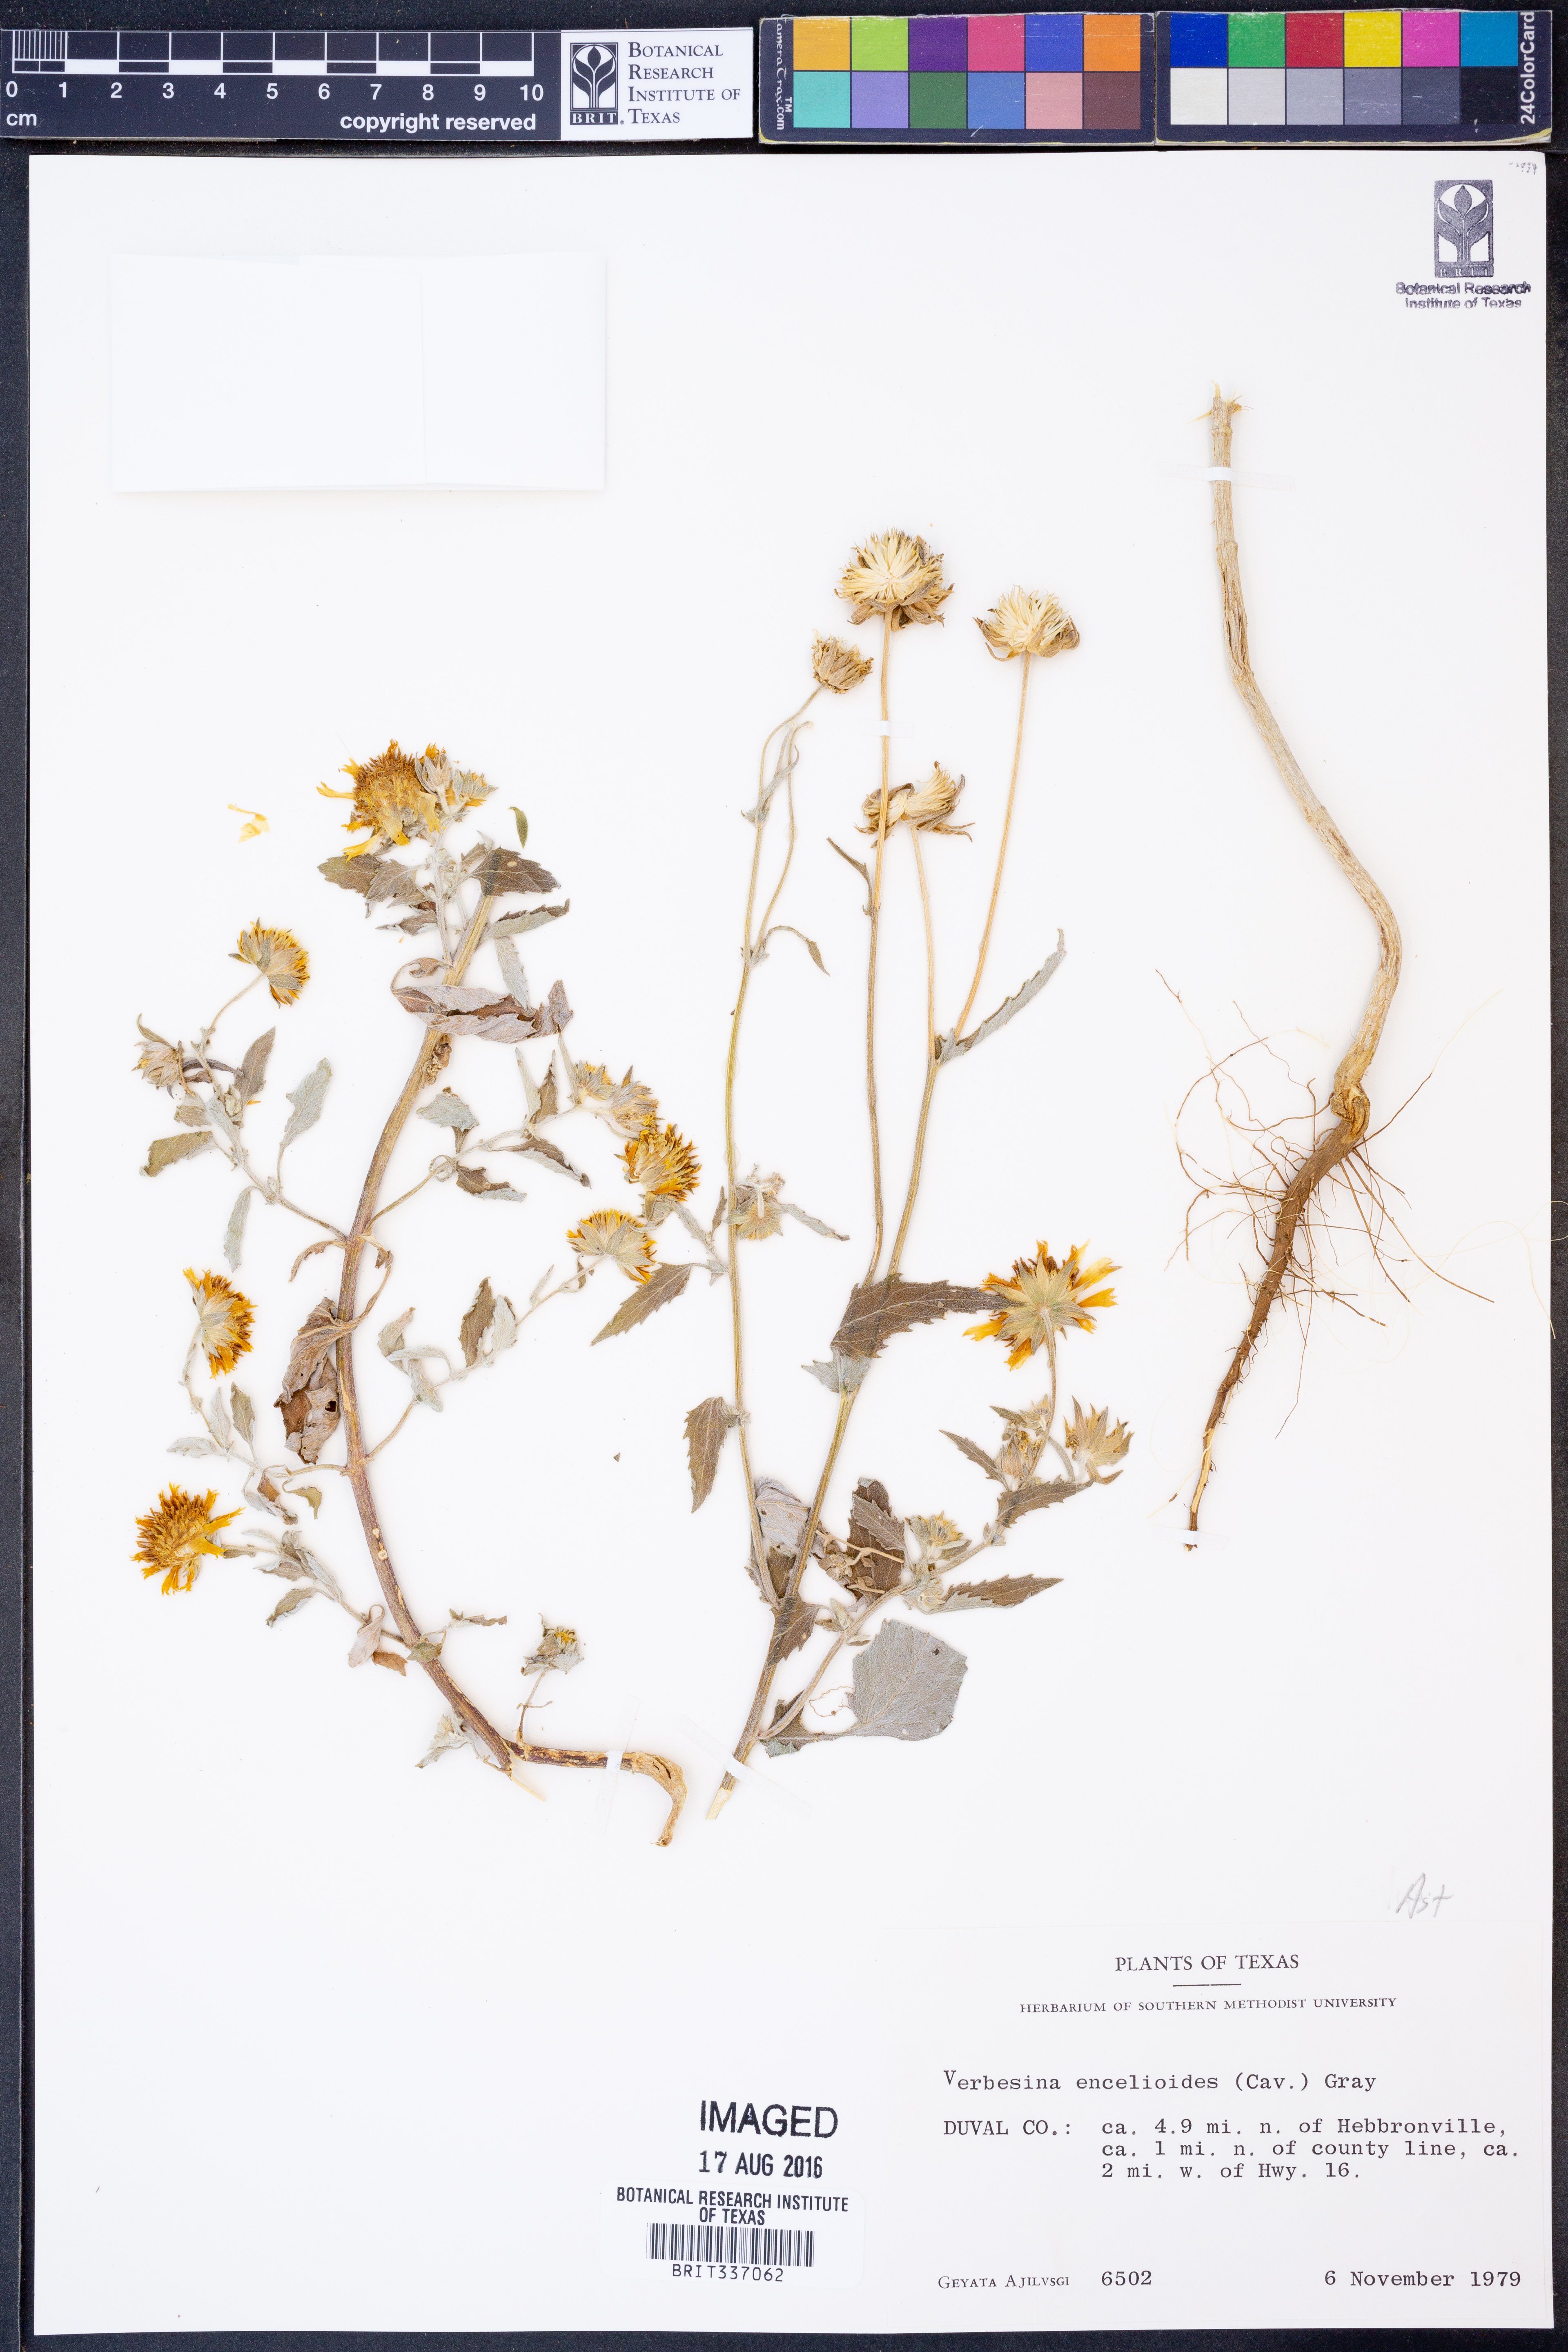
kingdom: Plantae
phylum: Tracheophyta
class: Magnoliopsida
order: Asterales
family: Asteraceae
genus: Verbesina
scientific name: Verbesina encelioides
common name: Golden crownbeard
